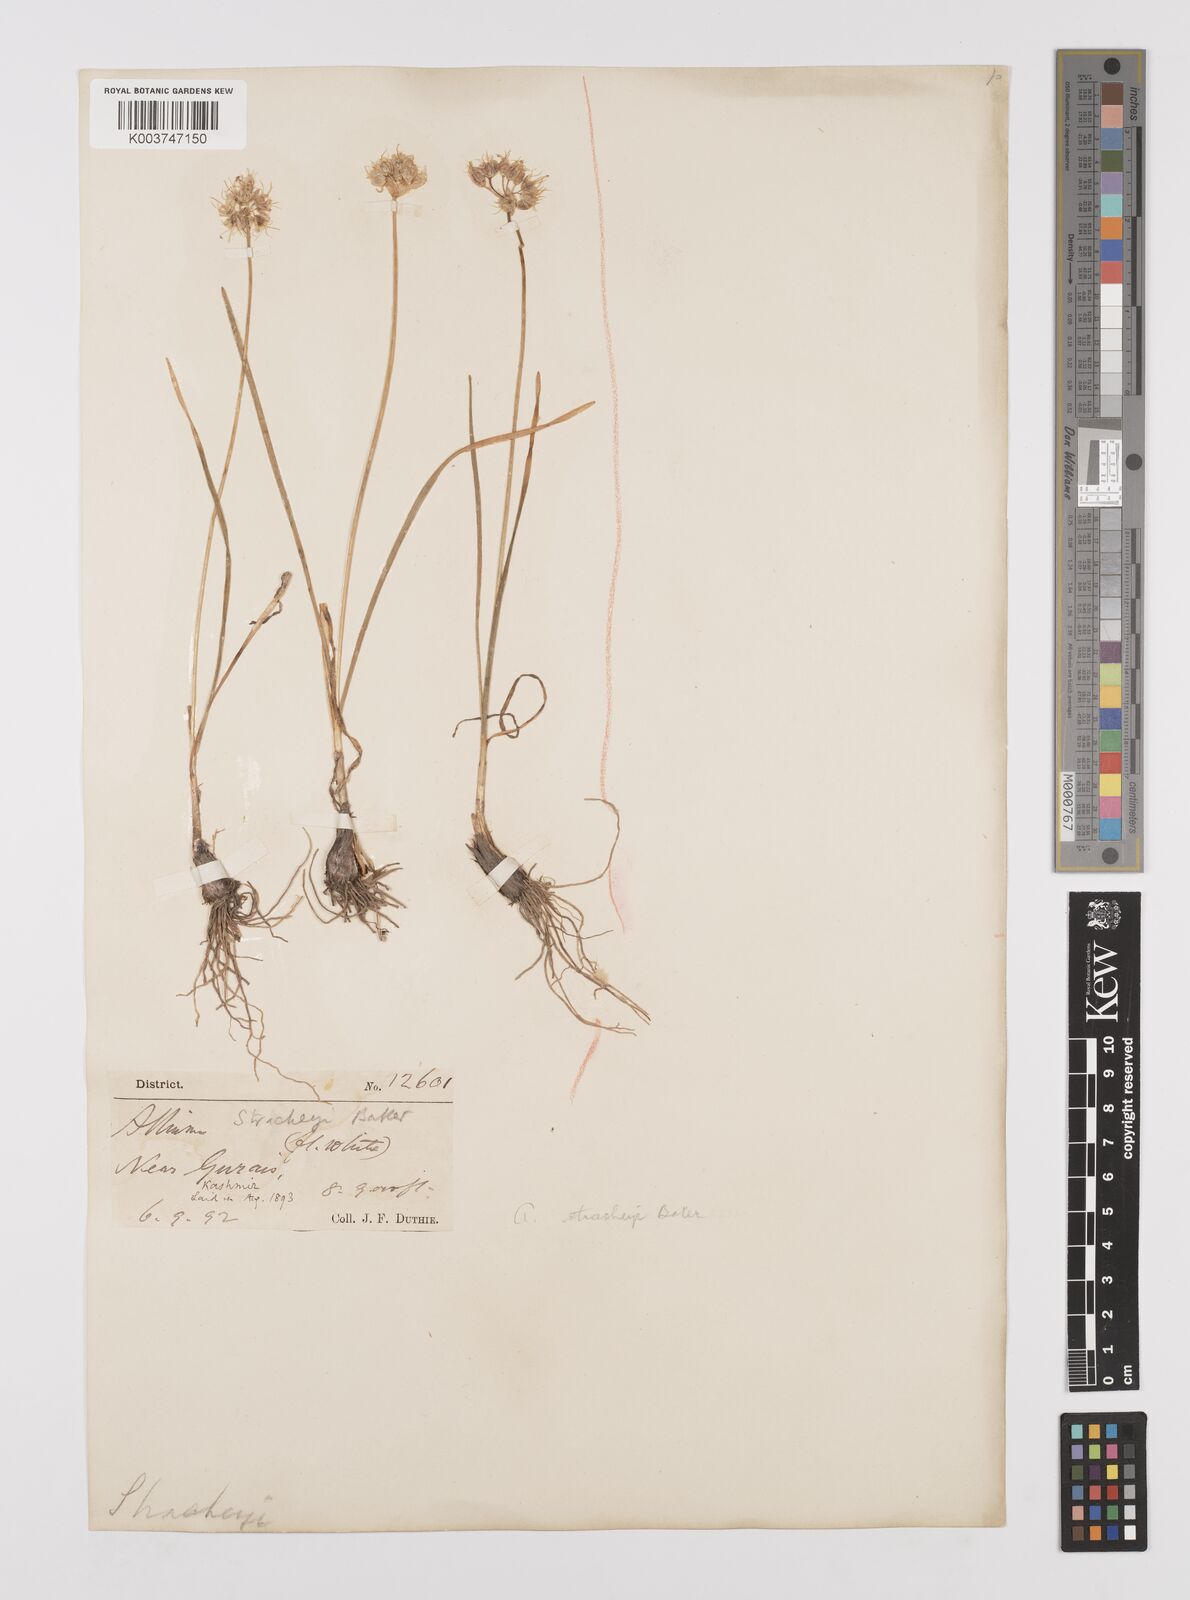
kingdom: Plantae
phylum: Tracheophyta
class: Liliopsida
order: Asparagales
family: Amaryllidaceae
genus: Allium
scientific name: Allium stracheyi
